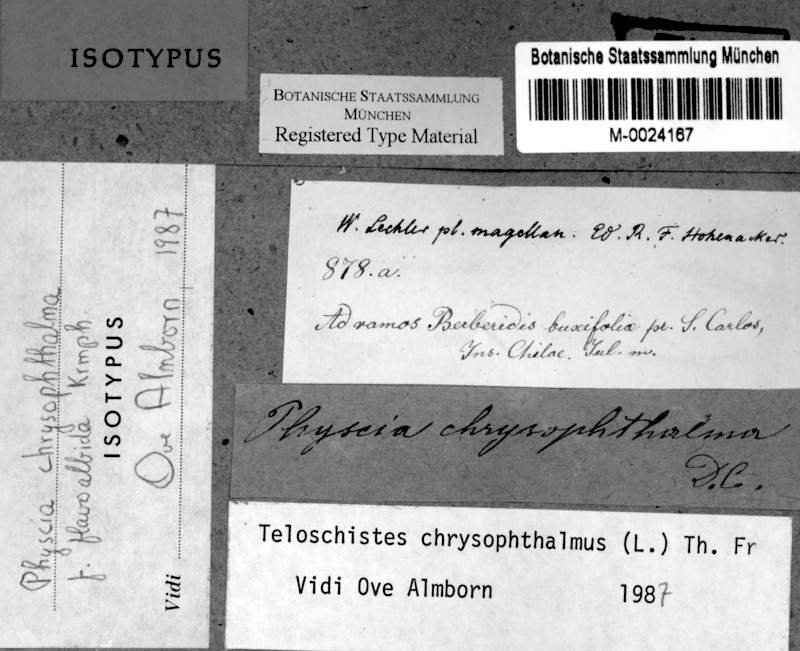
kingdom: Fungi
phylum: Ascomycota
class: Lecanoromycetes
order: Teloschistales
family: Teloschistaceae
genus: Niorma
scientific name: Niorma chrysophthalma
